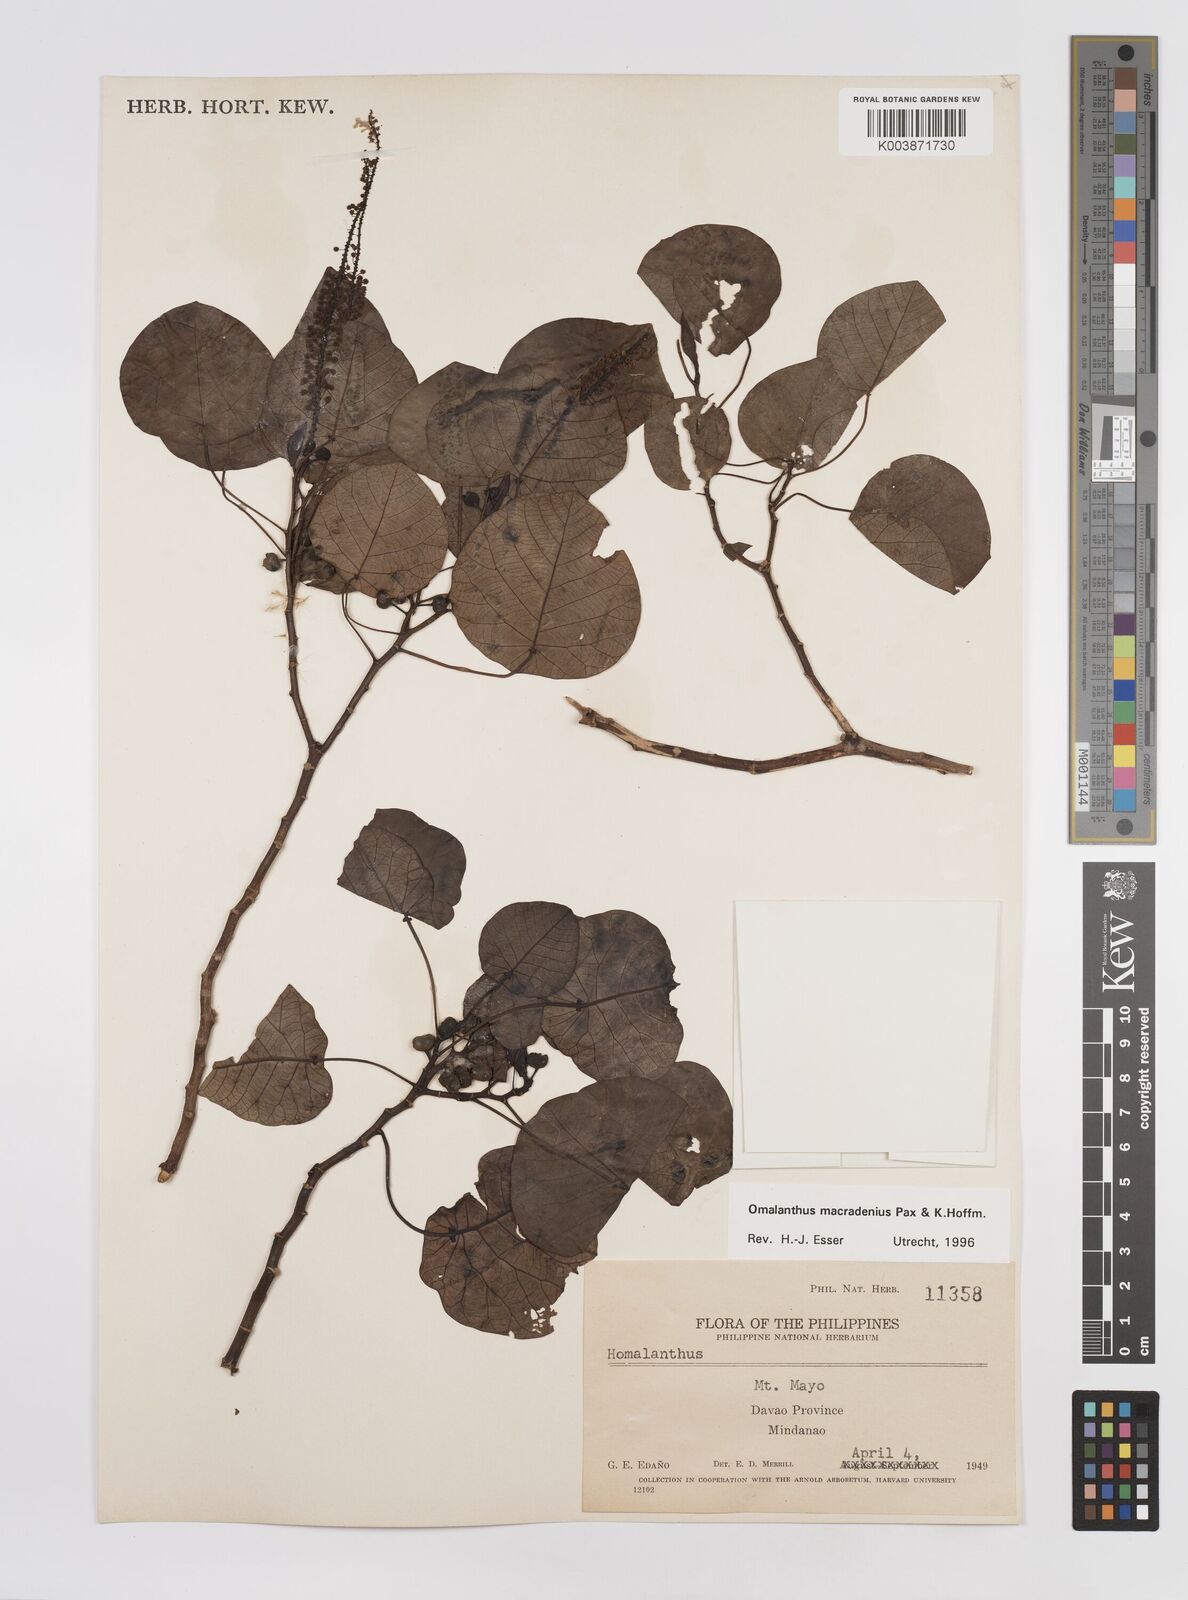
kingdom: Plantae
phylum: Tracheophyta
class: Magnoliopsida
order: Malpighiales
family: Euphorbiaceae
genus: Homalanthus
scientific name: Homalanthus macradenius
